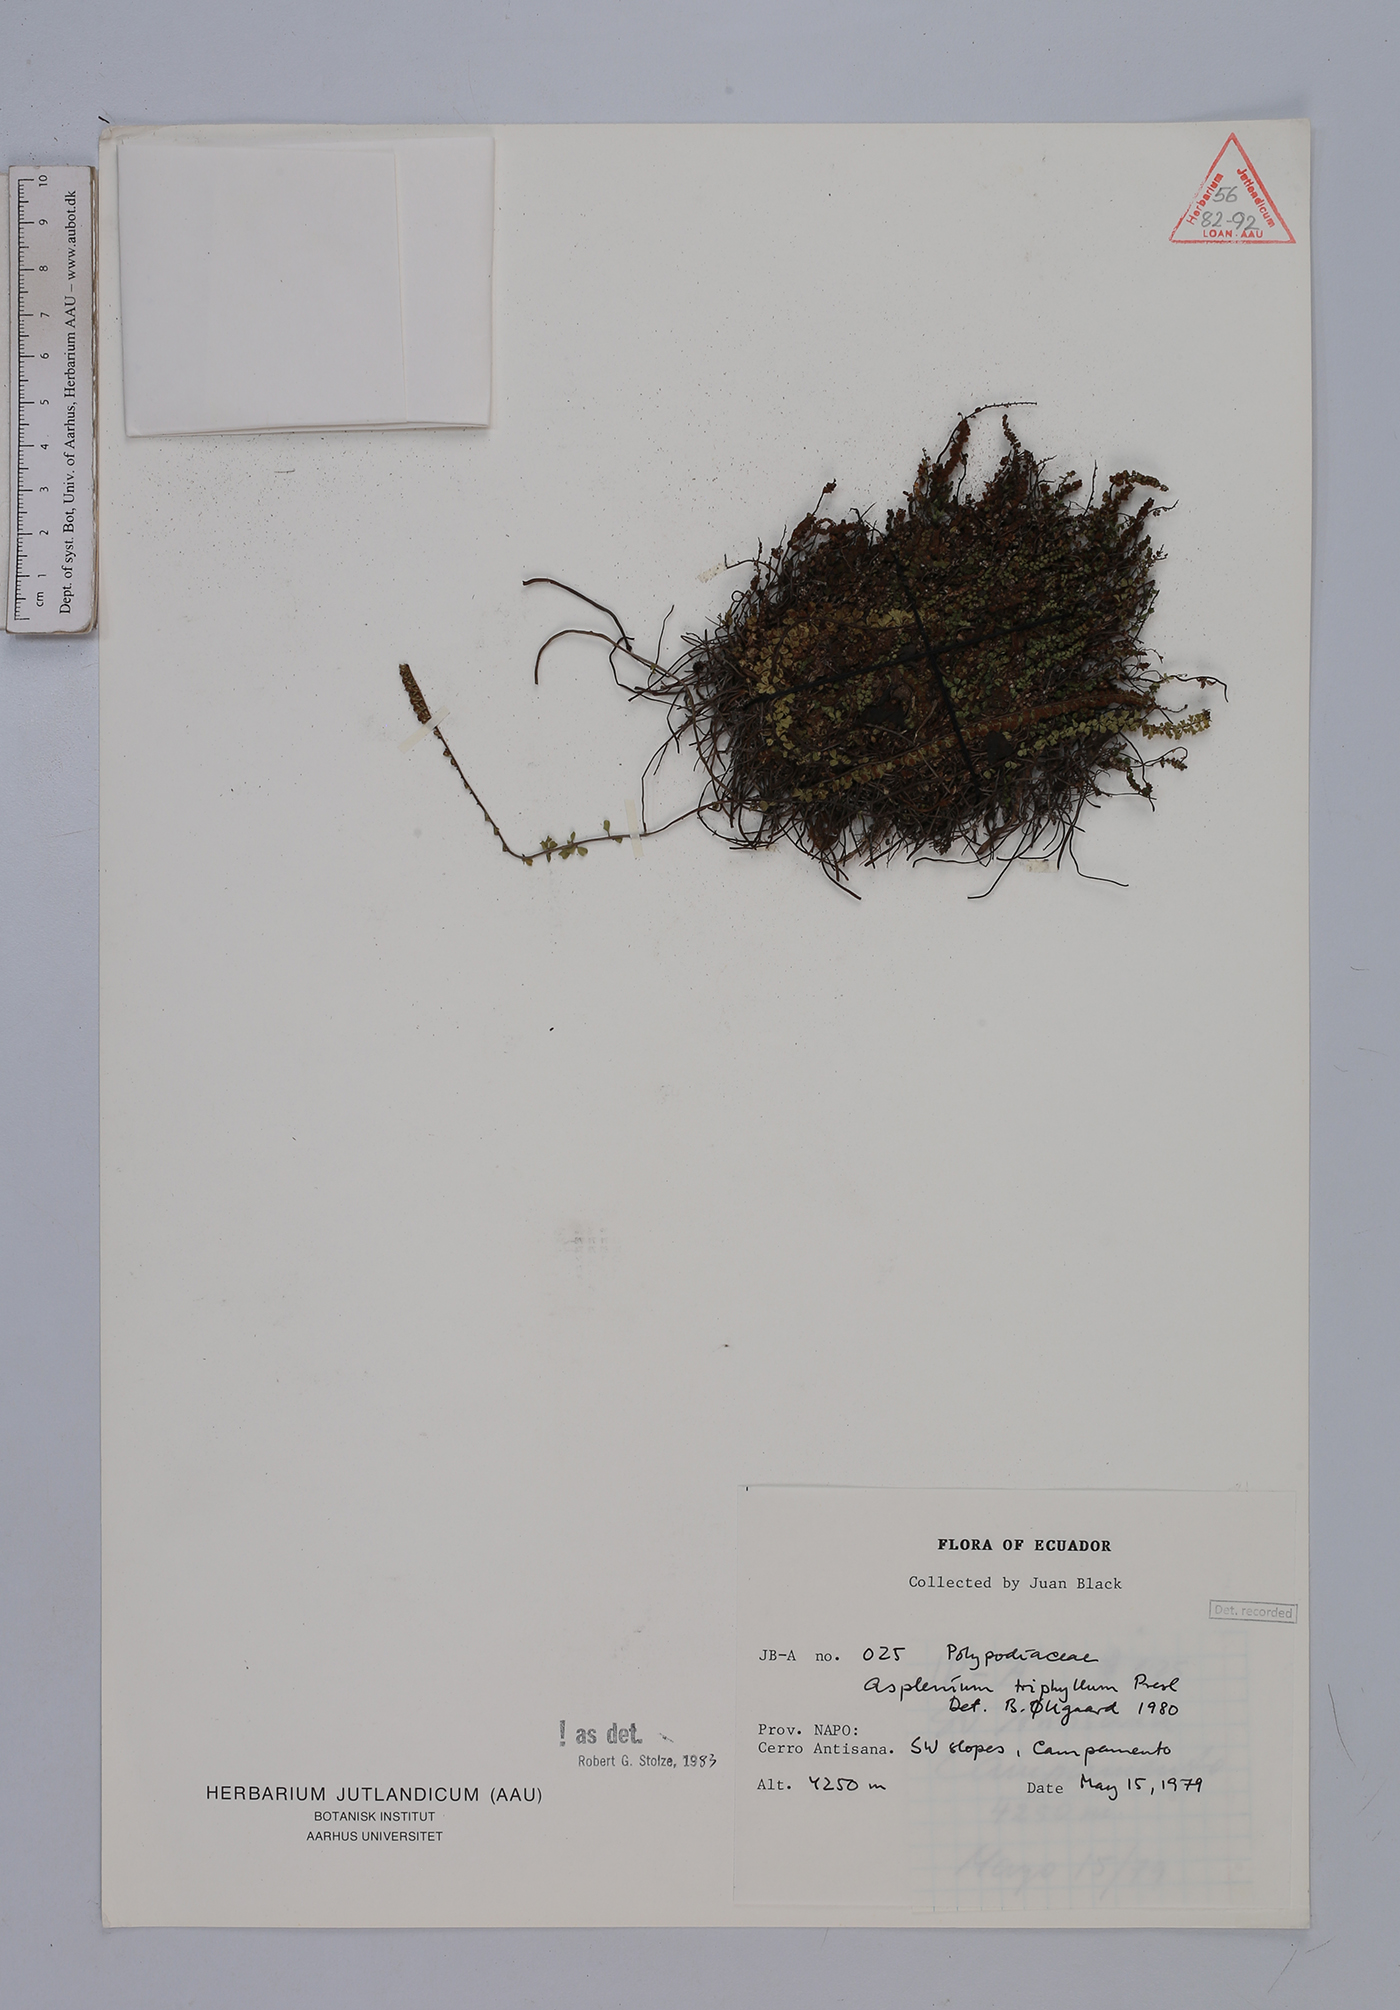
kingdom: Plantae
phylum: Tracheophyta
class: Polypodiopsida
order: Polypodiales
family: Aspleniaceae
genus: Asplenium
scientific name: Asplenium triphyllum
